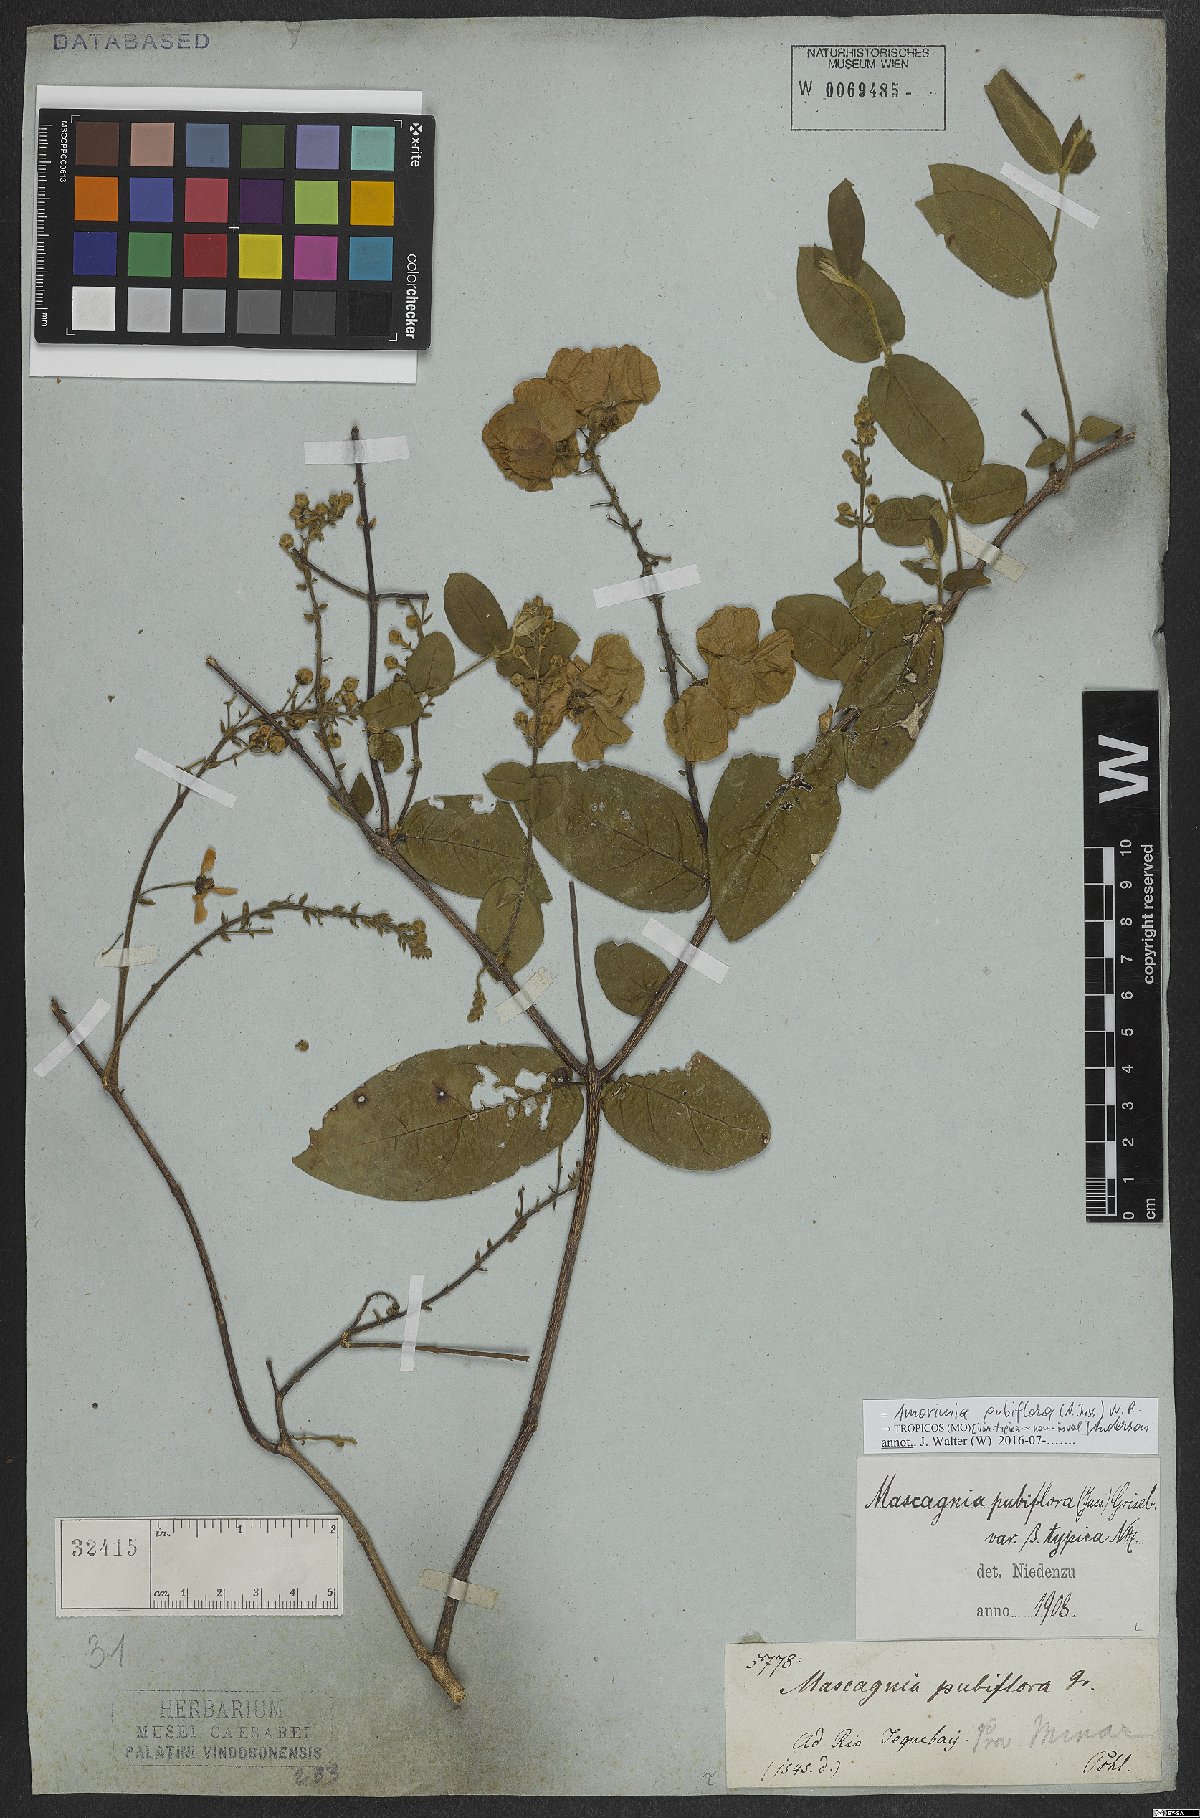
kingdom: Plantae
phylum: Tracheophyta
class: Magnoliopsida
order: Malpighiales
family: Malpighiaceae
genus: Amorimia
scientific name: Amorimia pubiflora
